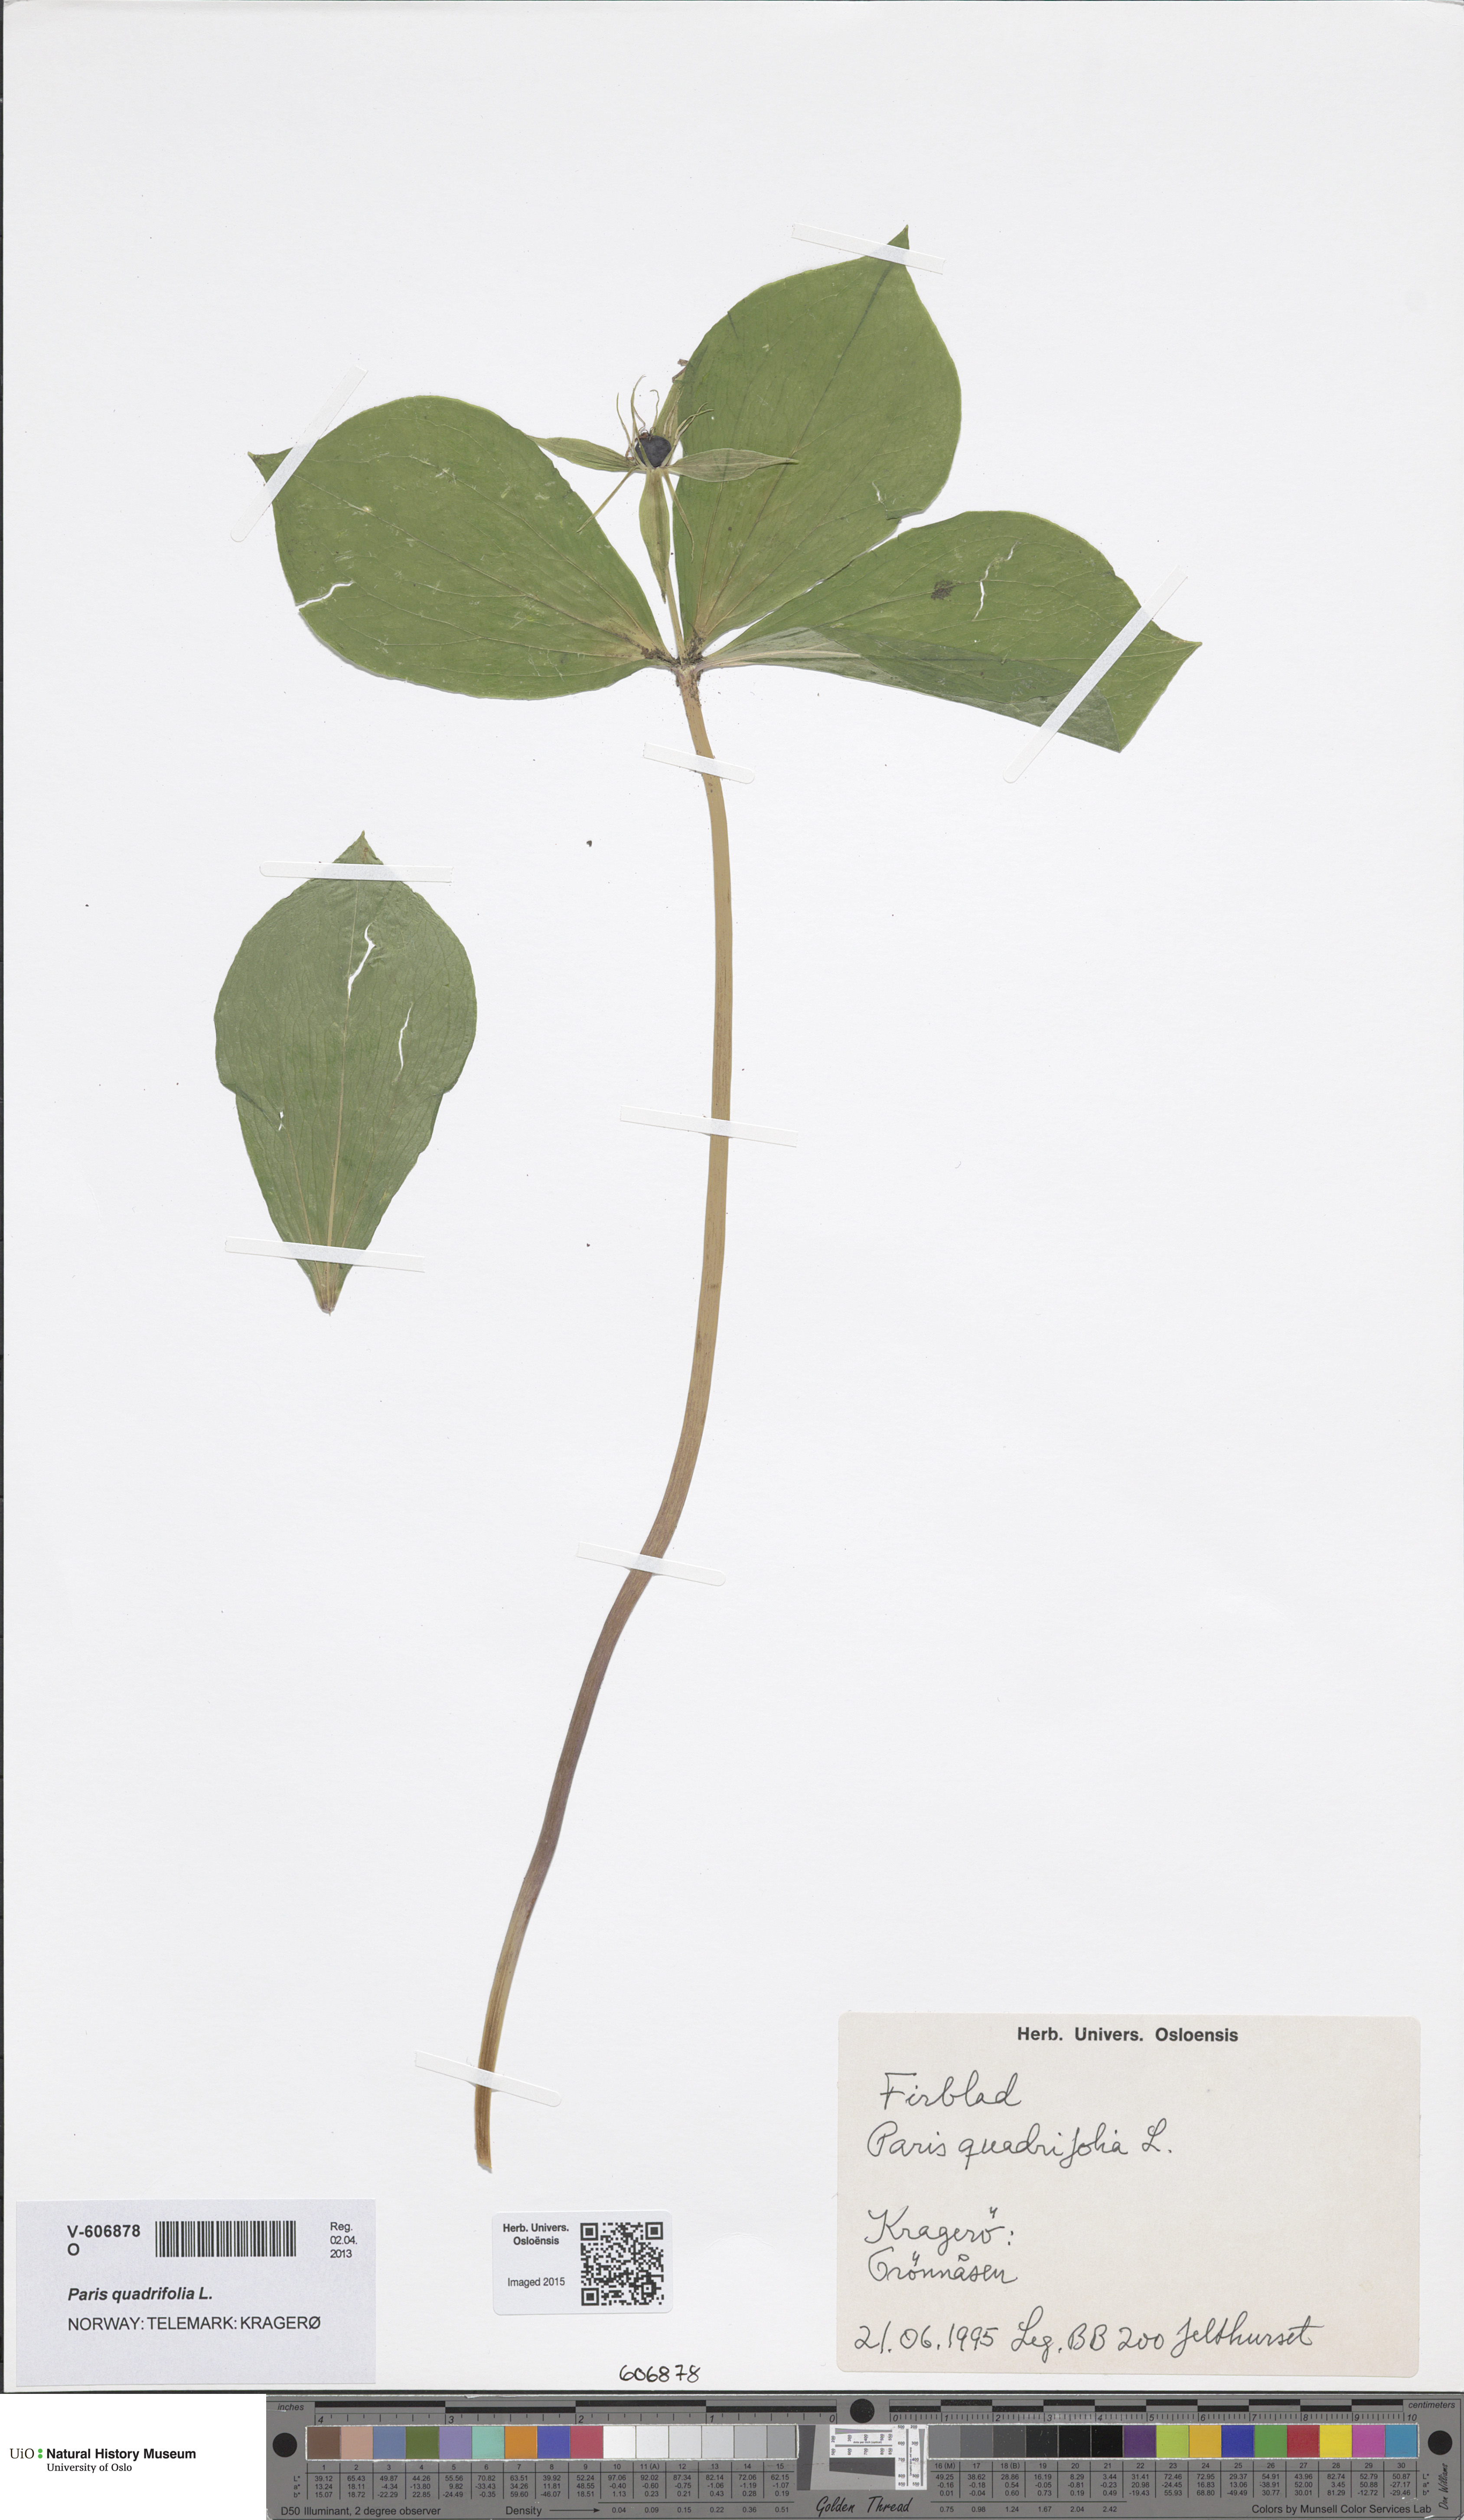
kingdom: Plantae
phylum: Tracheophyta
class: Liliopsida
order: Liliales
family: Melanthiaceae
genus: Paris
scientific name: Paris quadrifolia
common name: Herb-paris
